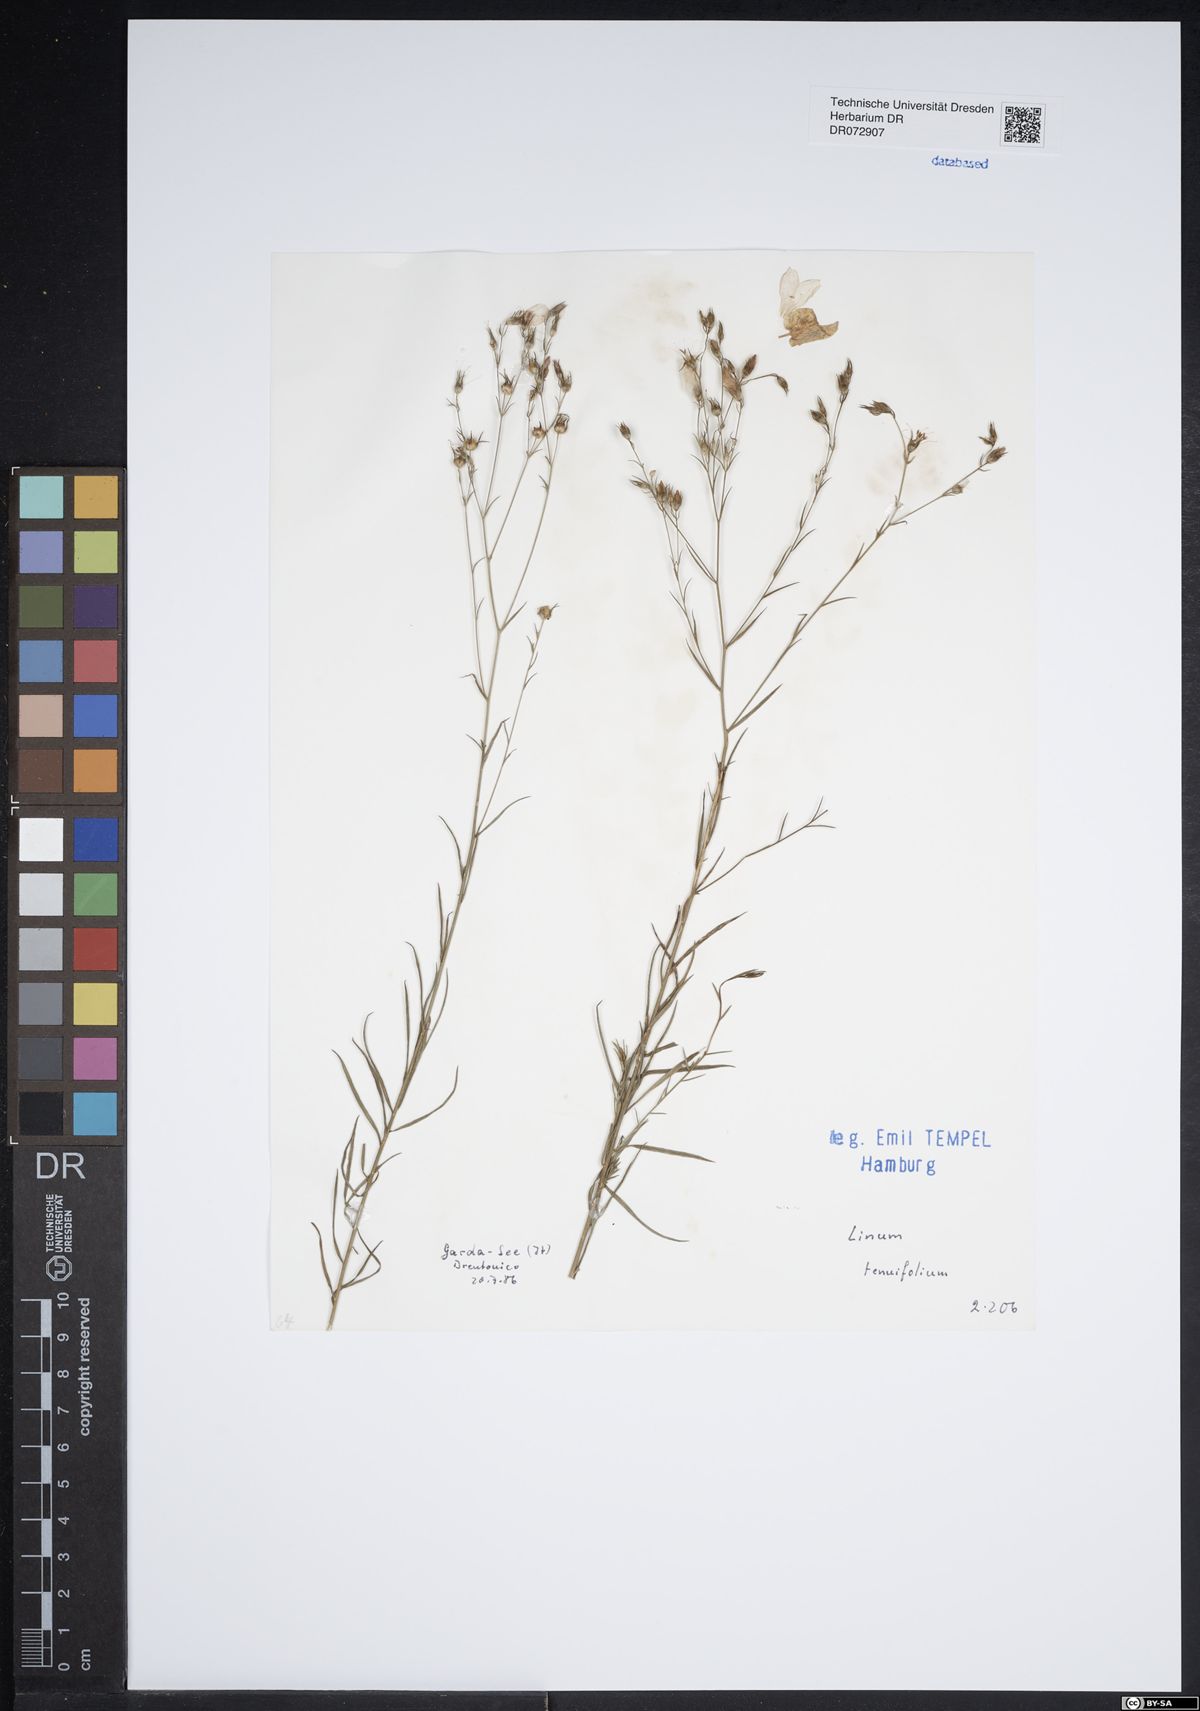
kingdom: Plantae
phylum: Tracheophyta
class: Magnoliopsida
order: Malpighiales
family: Linaceae
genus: Linum
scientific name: Linum tenuifolium
